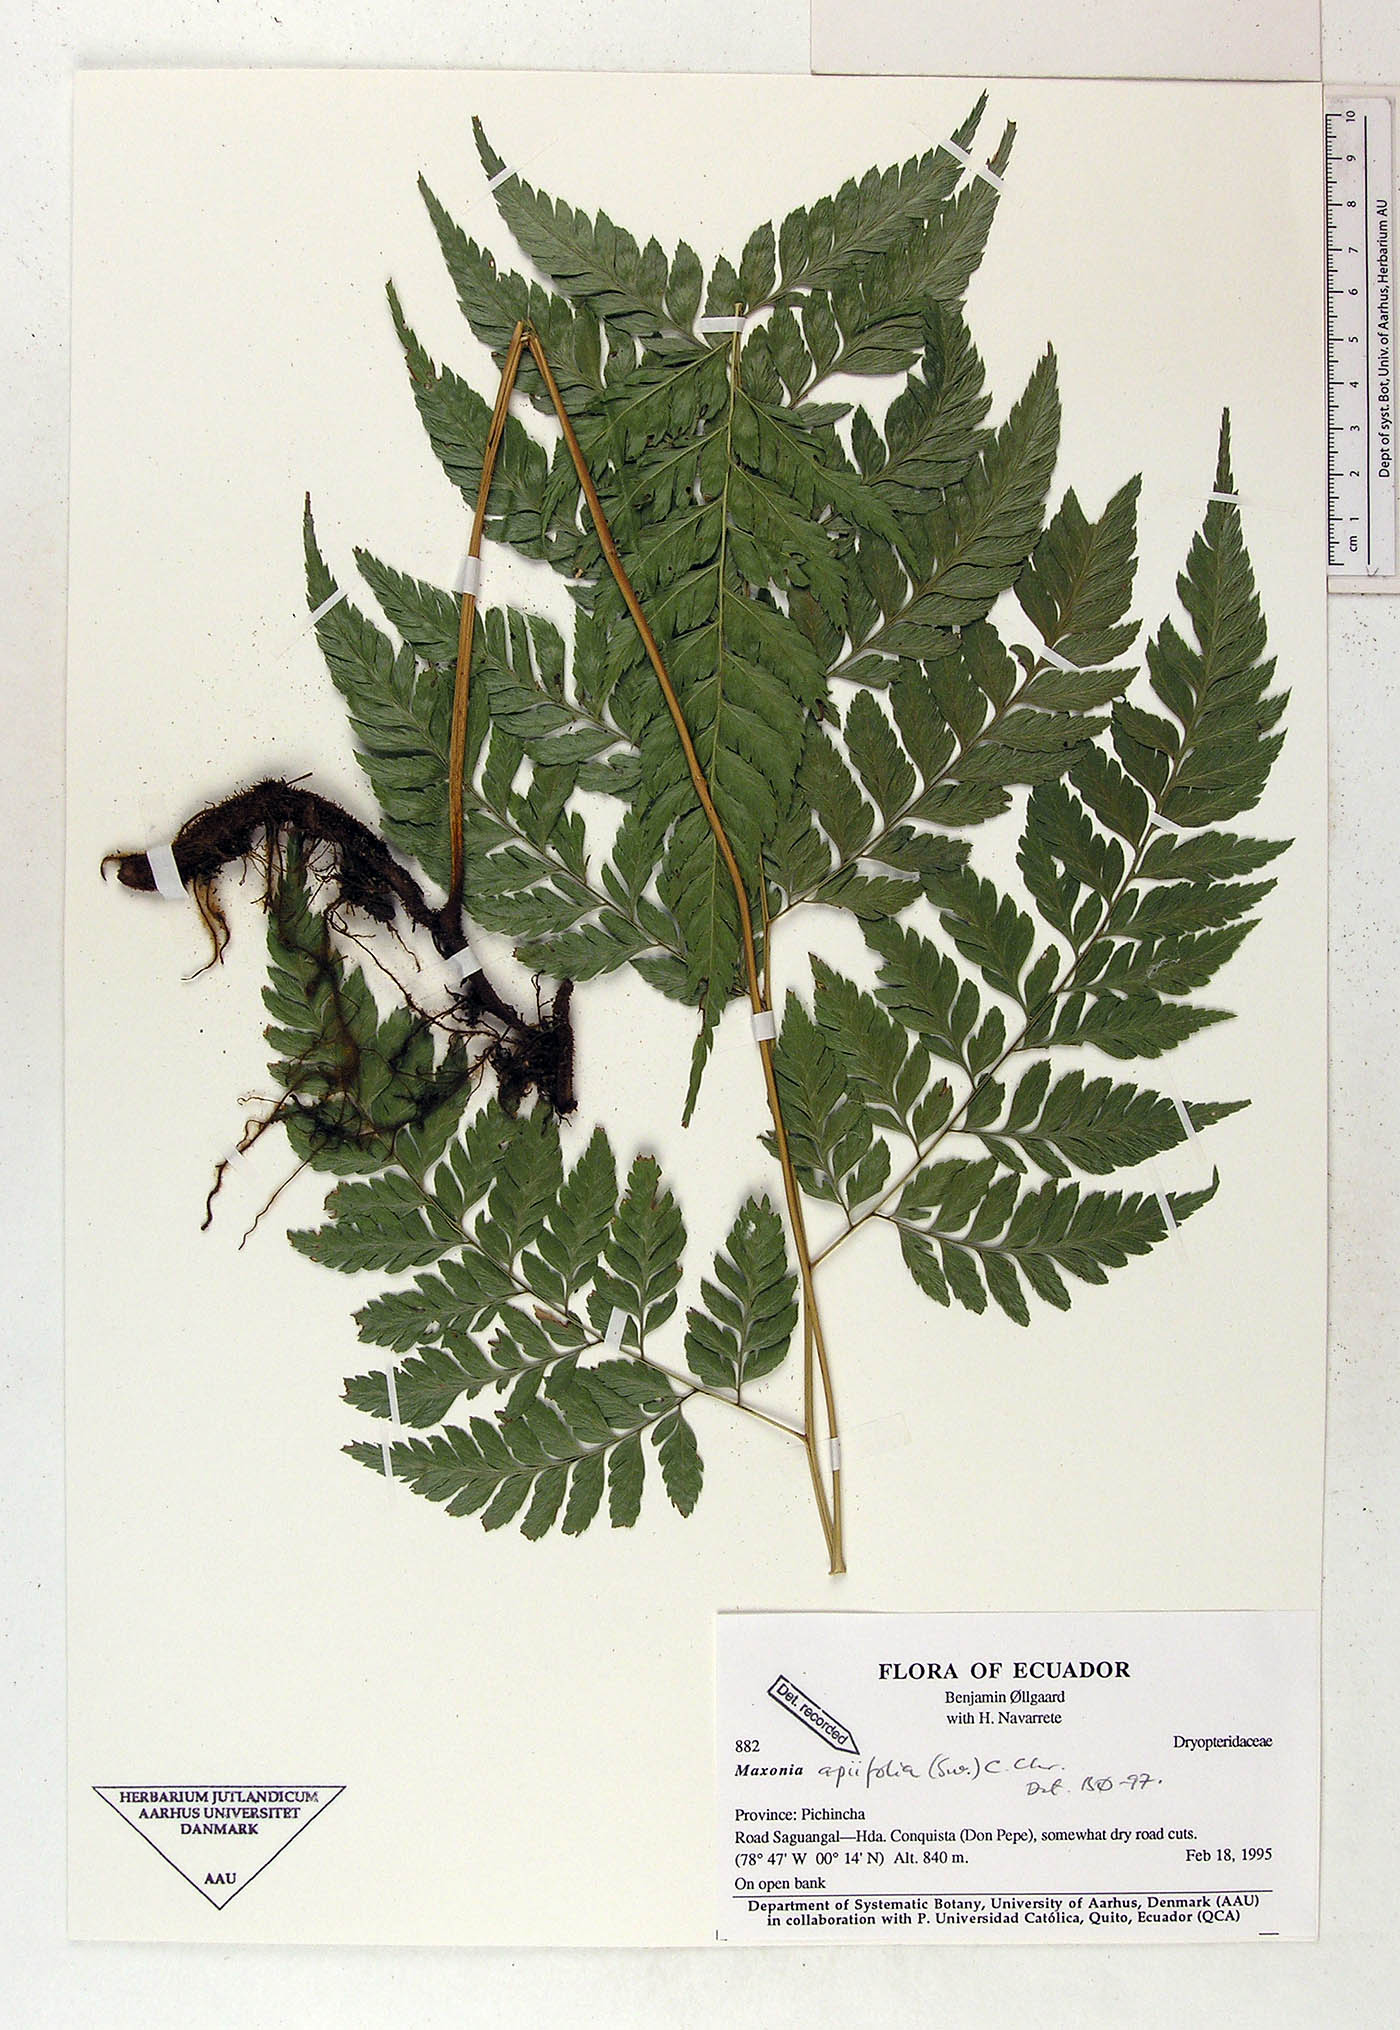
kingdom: Plantae
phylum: Tracheophyta
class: Polypodiopsida
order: Polypodiales
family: Dryopteridaceae
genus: Maxonia
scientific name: Maxonia apiifolia
